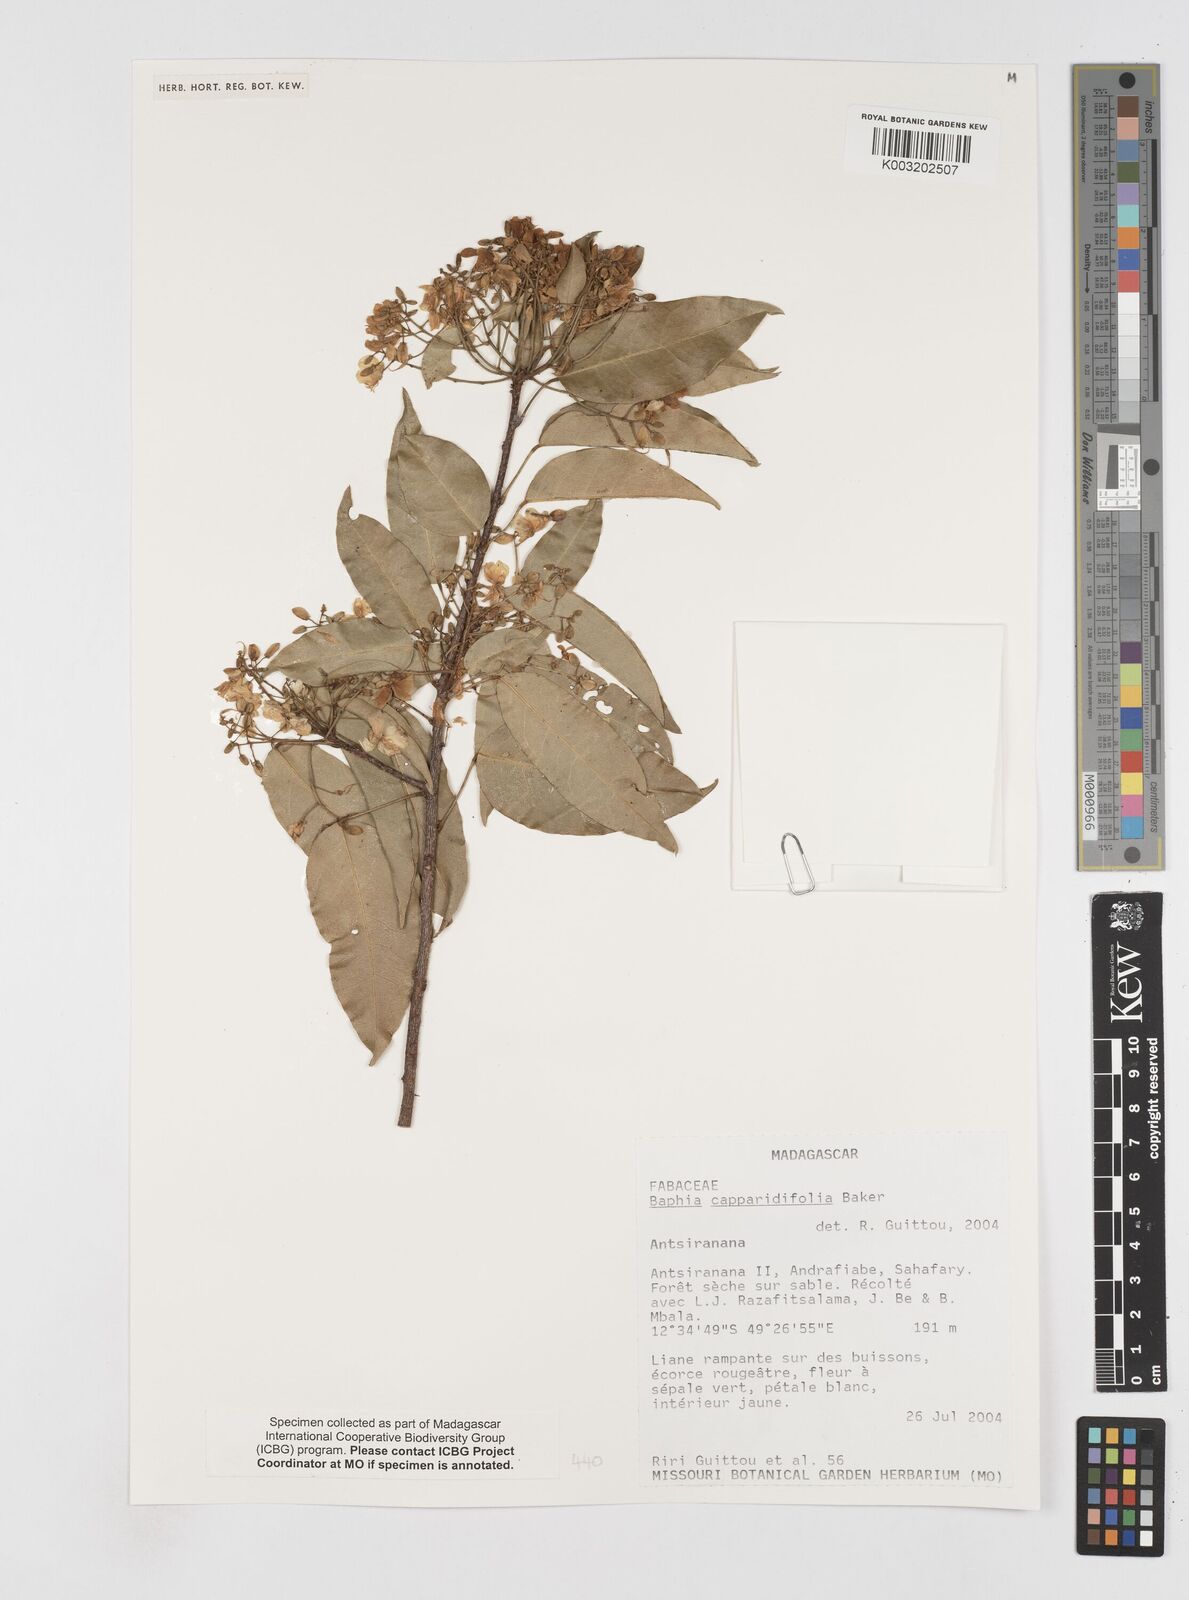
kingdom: Plantae
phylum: Tracheophyta
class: Magnoliopsida
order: Fabales
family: Fabaceae
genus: Baphia
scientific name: Baphia capparidifolia
